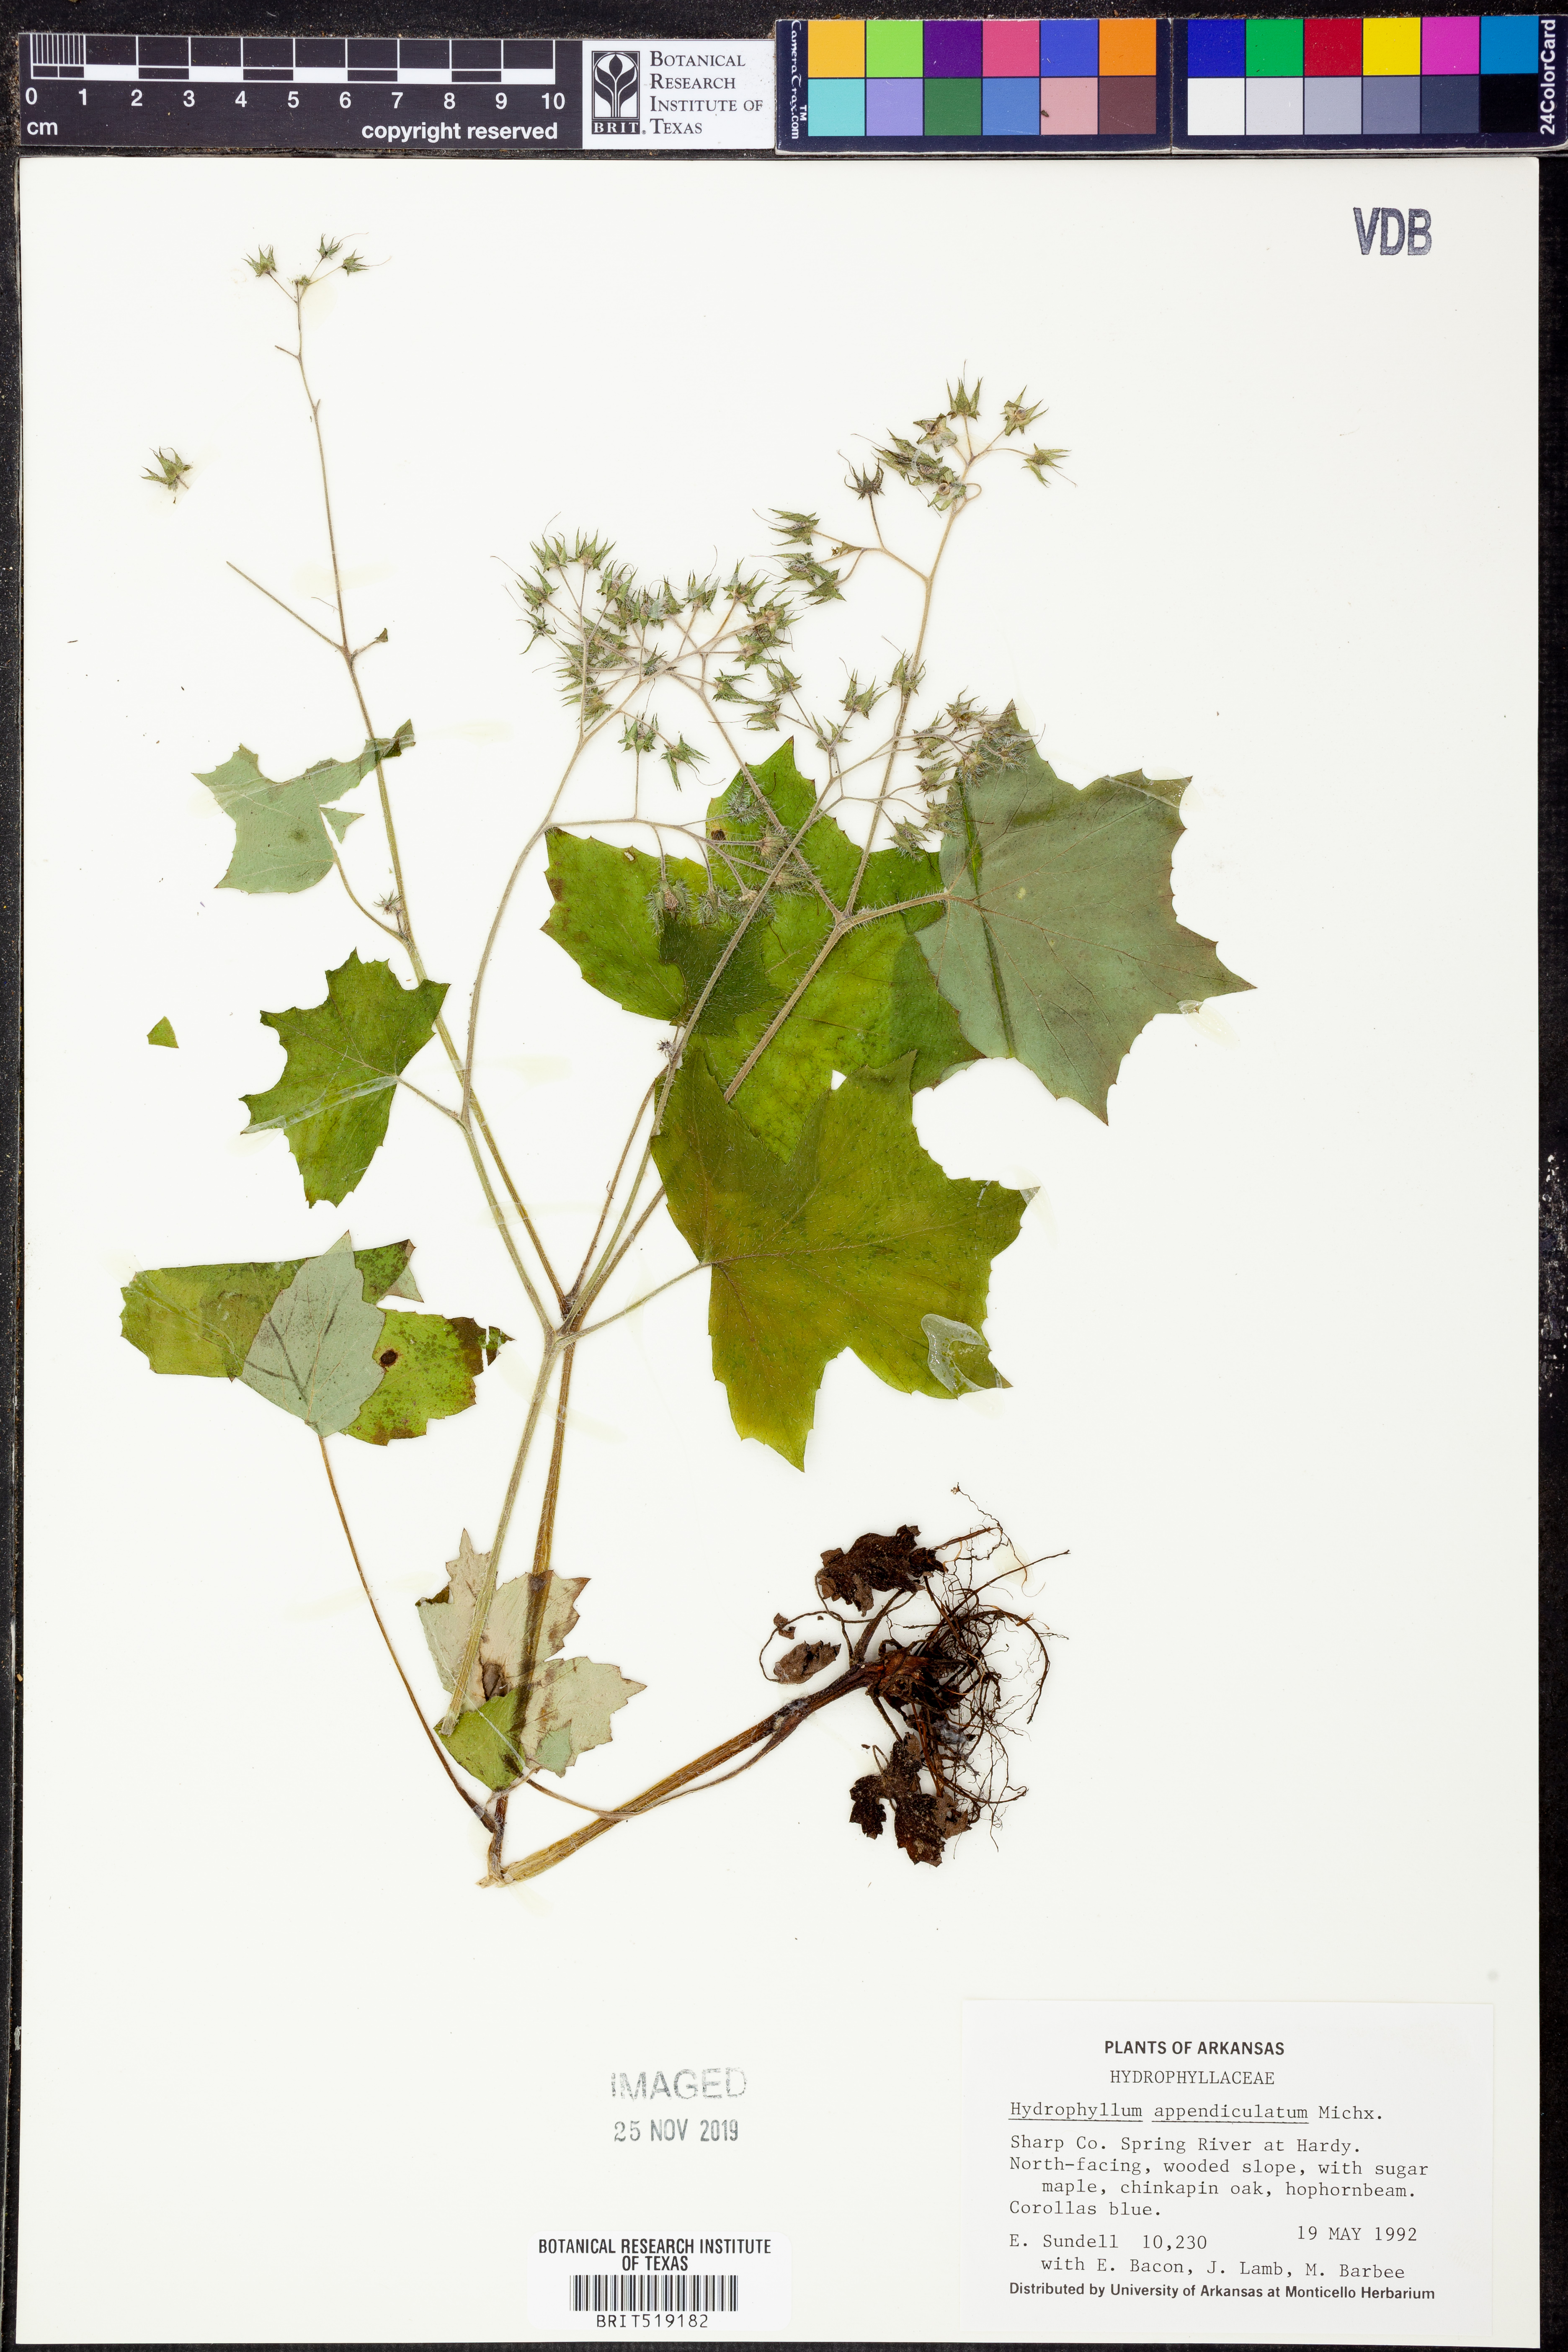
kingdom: Plantae
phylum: Tracheophyta
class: Magnoliopsida
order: Boraginales
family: Hydrophyllaceae
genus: Hydrophyllum
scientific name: Hydrophyllum appendiculatum
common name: Appendaged waterleaf
